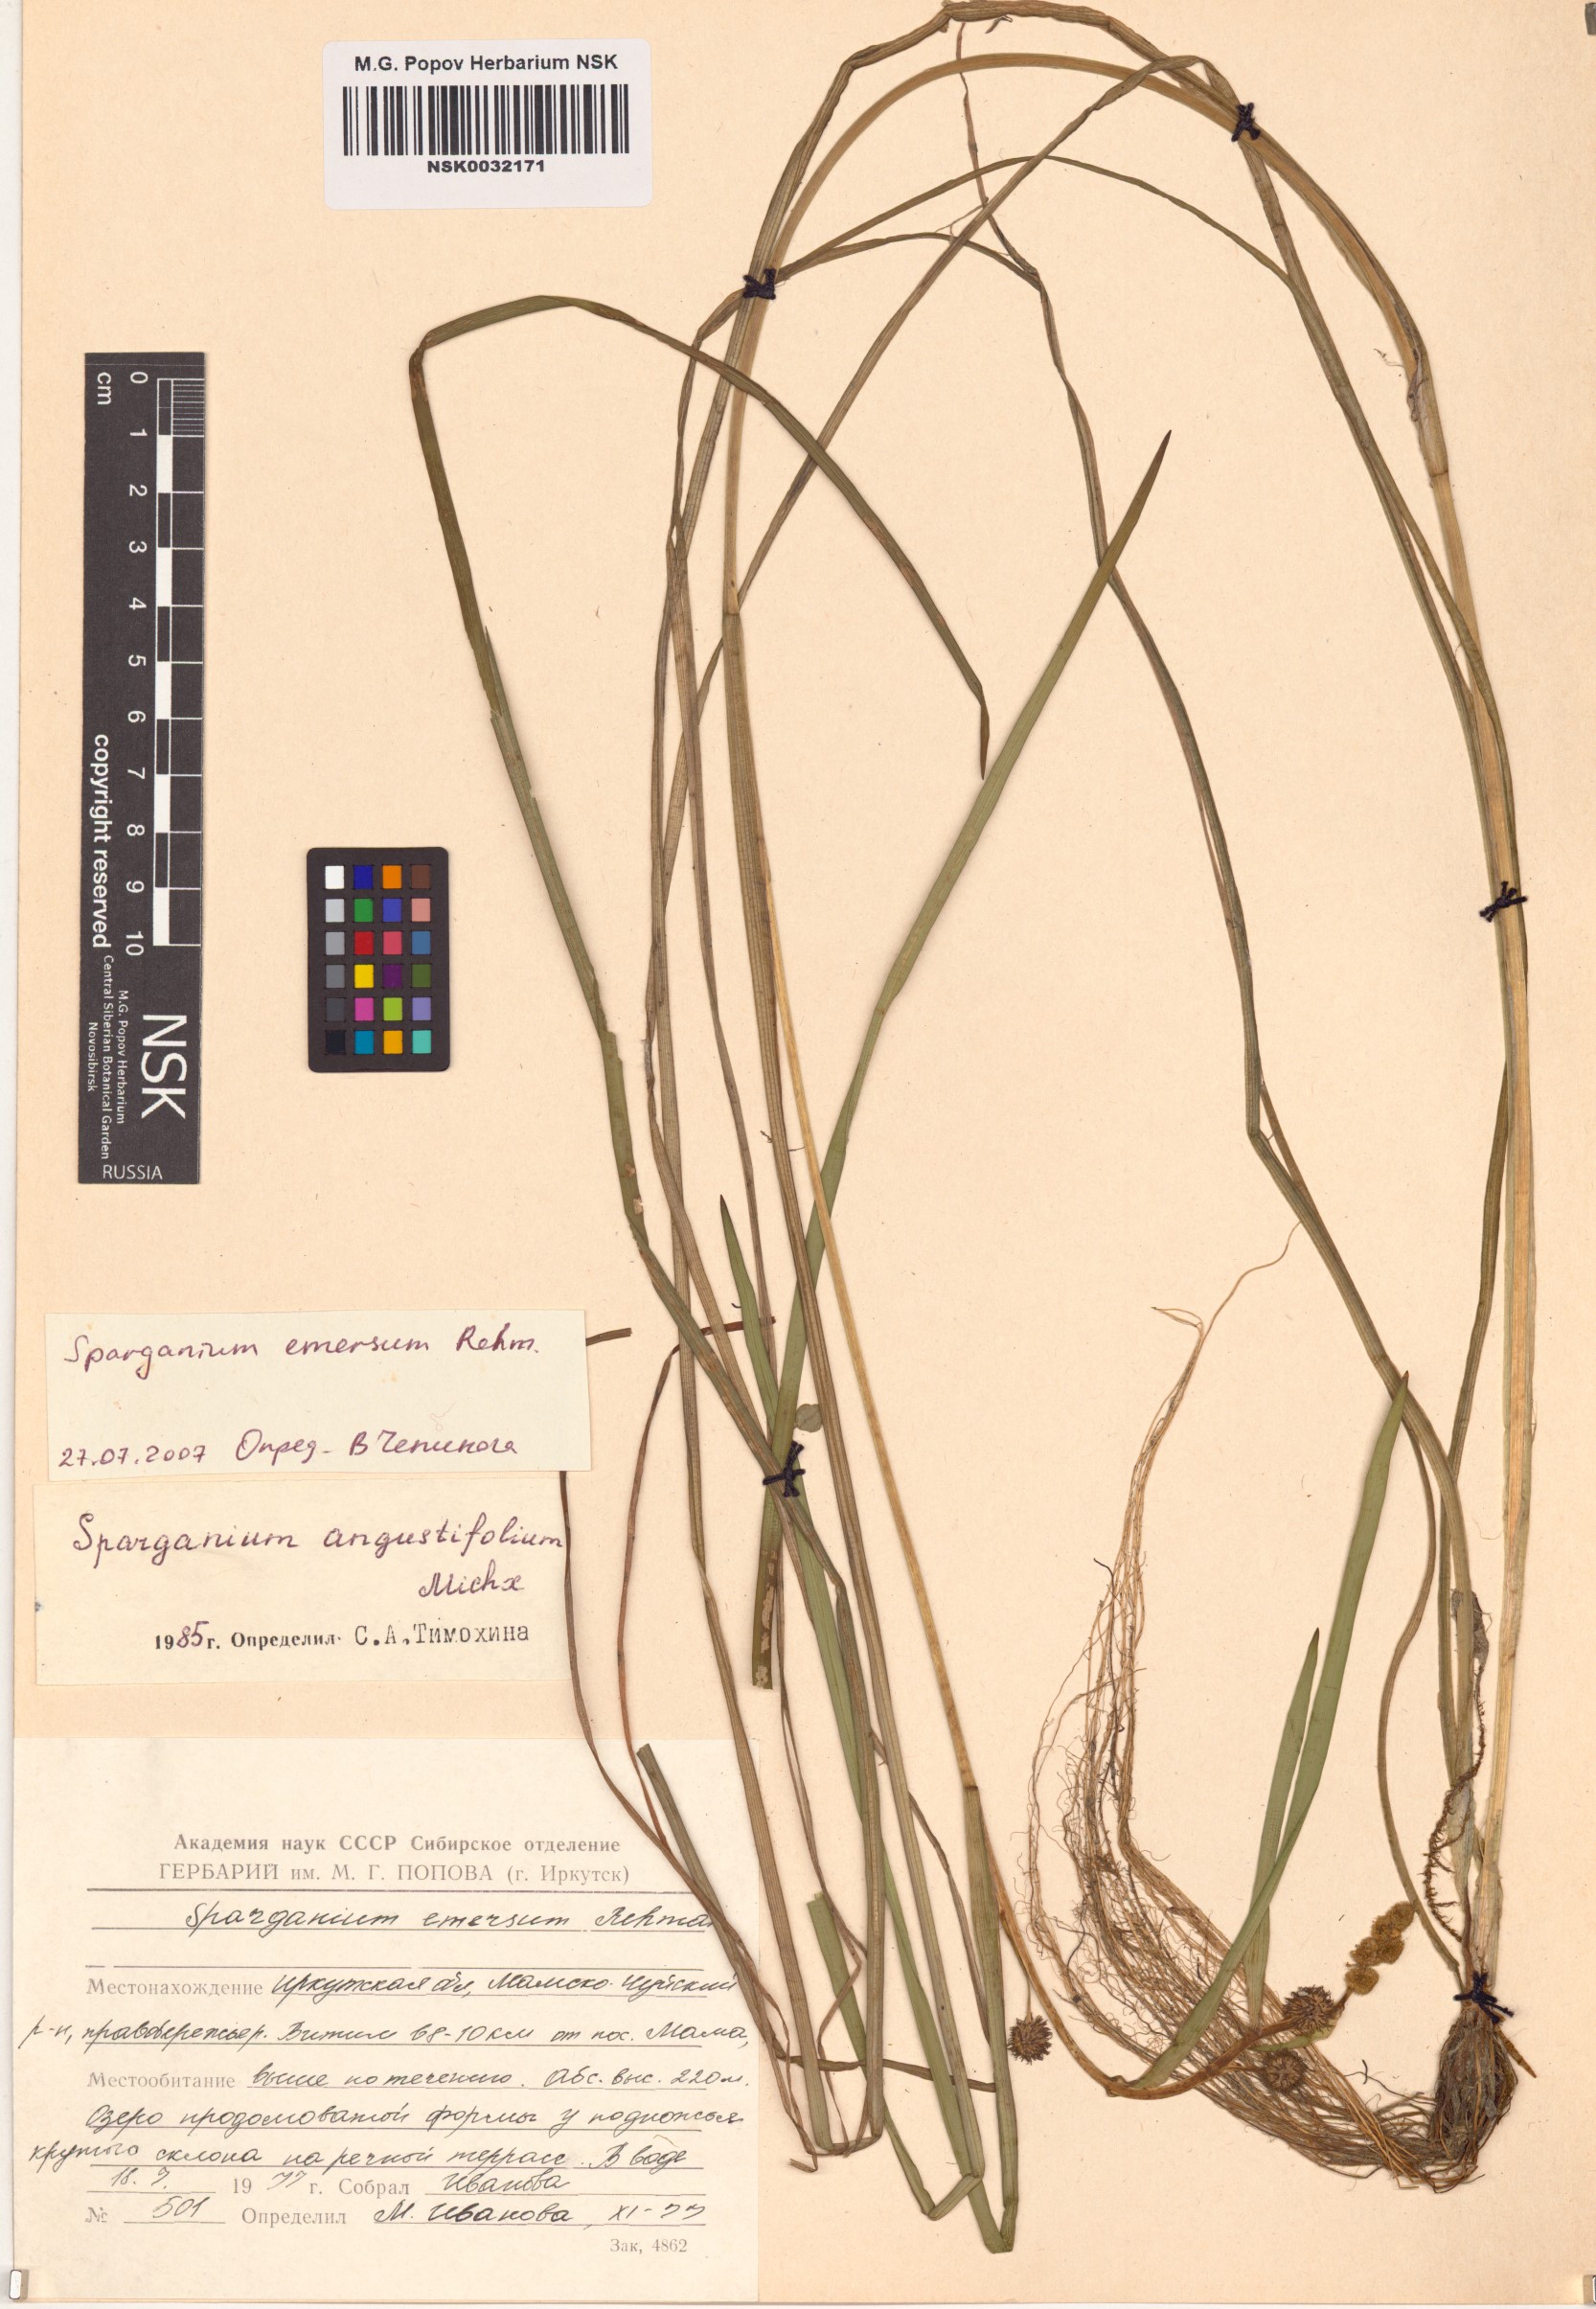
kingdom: Plantae
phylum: Tracheophyta
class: Liliopsida
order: Poales
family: Typhaceae
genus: Sparganium
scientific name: Sparganium emersum
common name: Unbranched bur-reed
